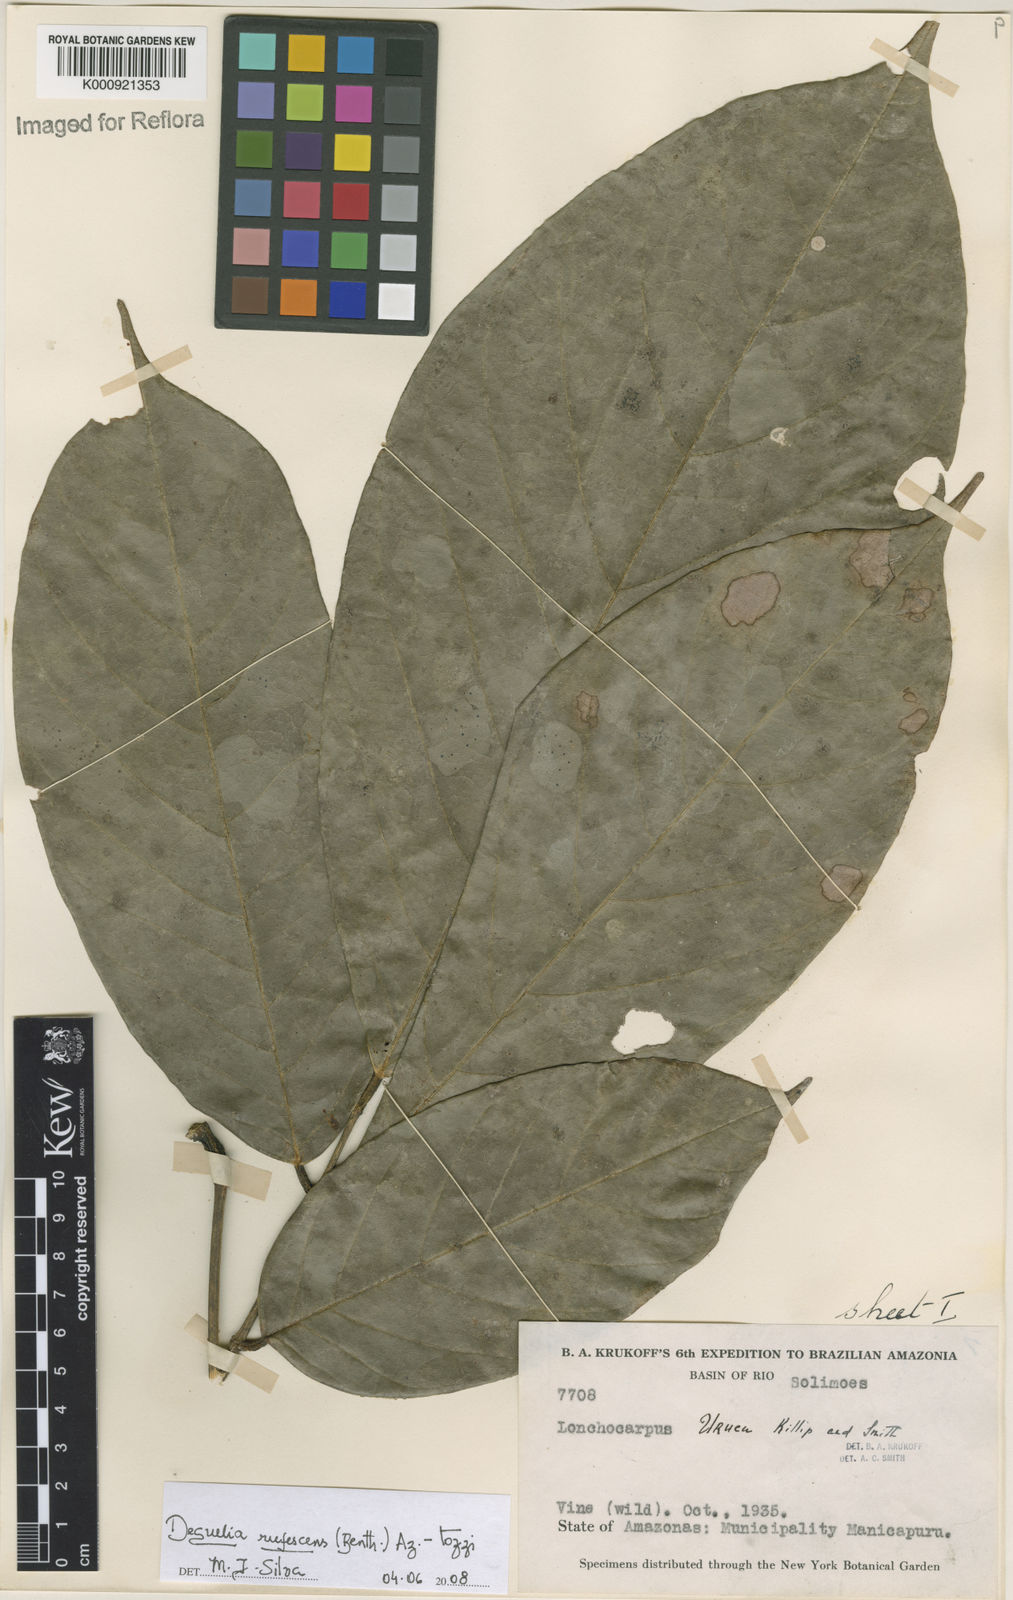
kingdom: Plantae
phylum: Tracheophyta
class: Magnoliopsida
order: Fabales
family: Fabaceae
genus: Deguelia
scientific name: Deguelia
